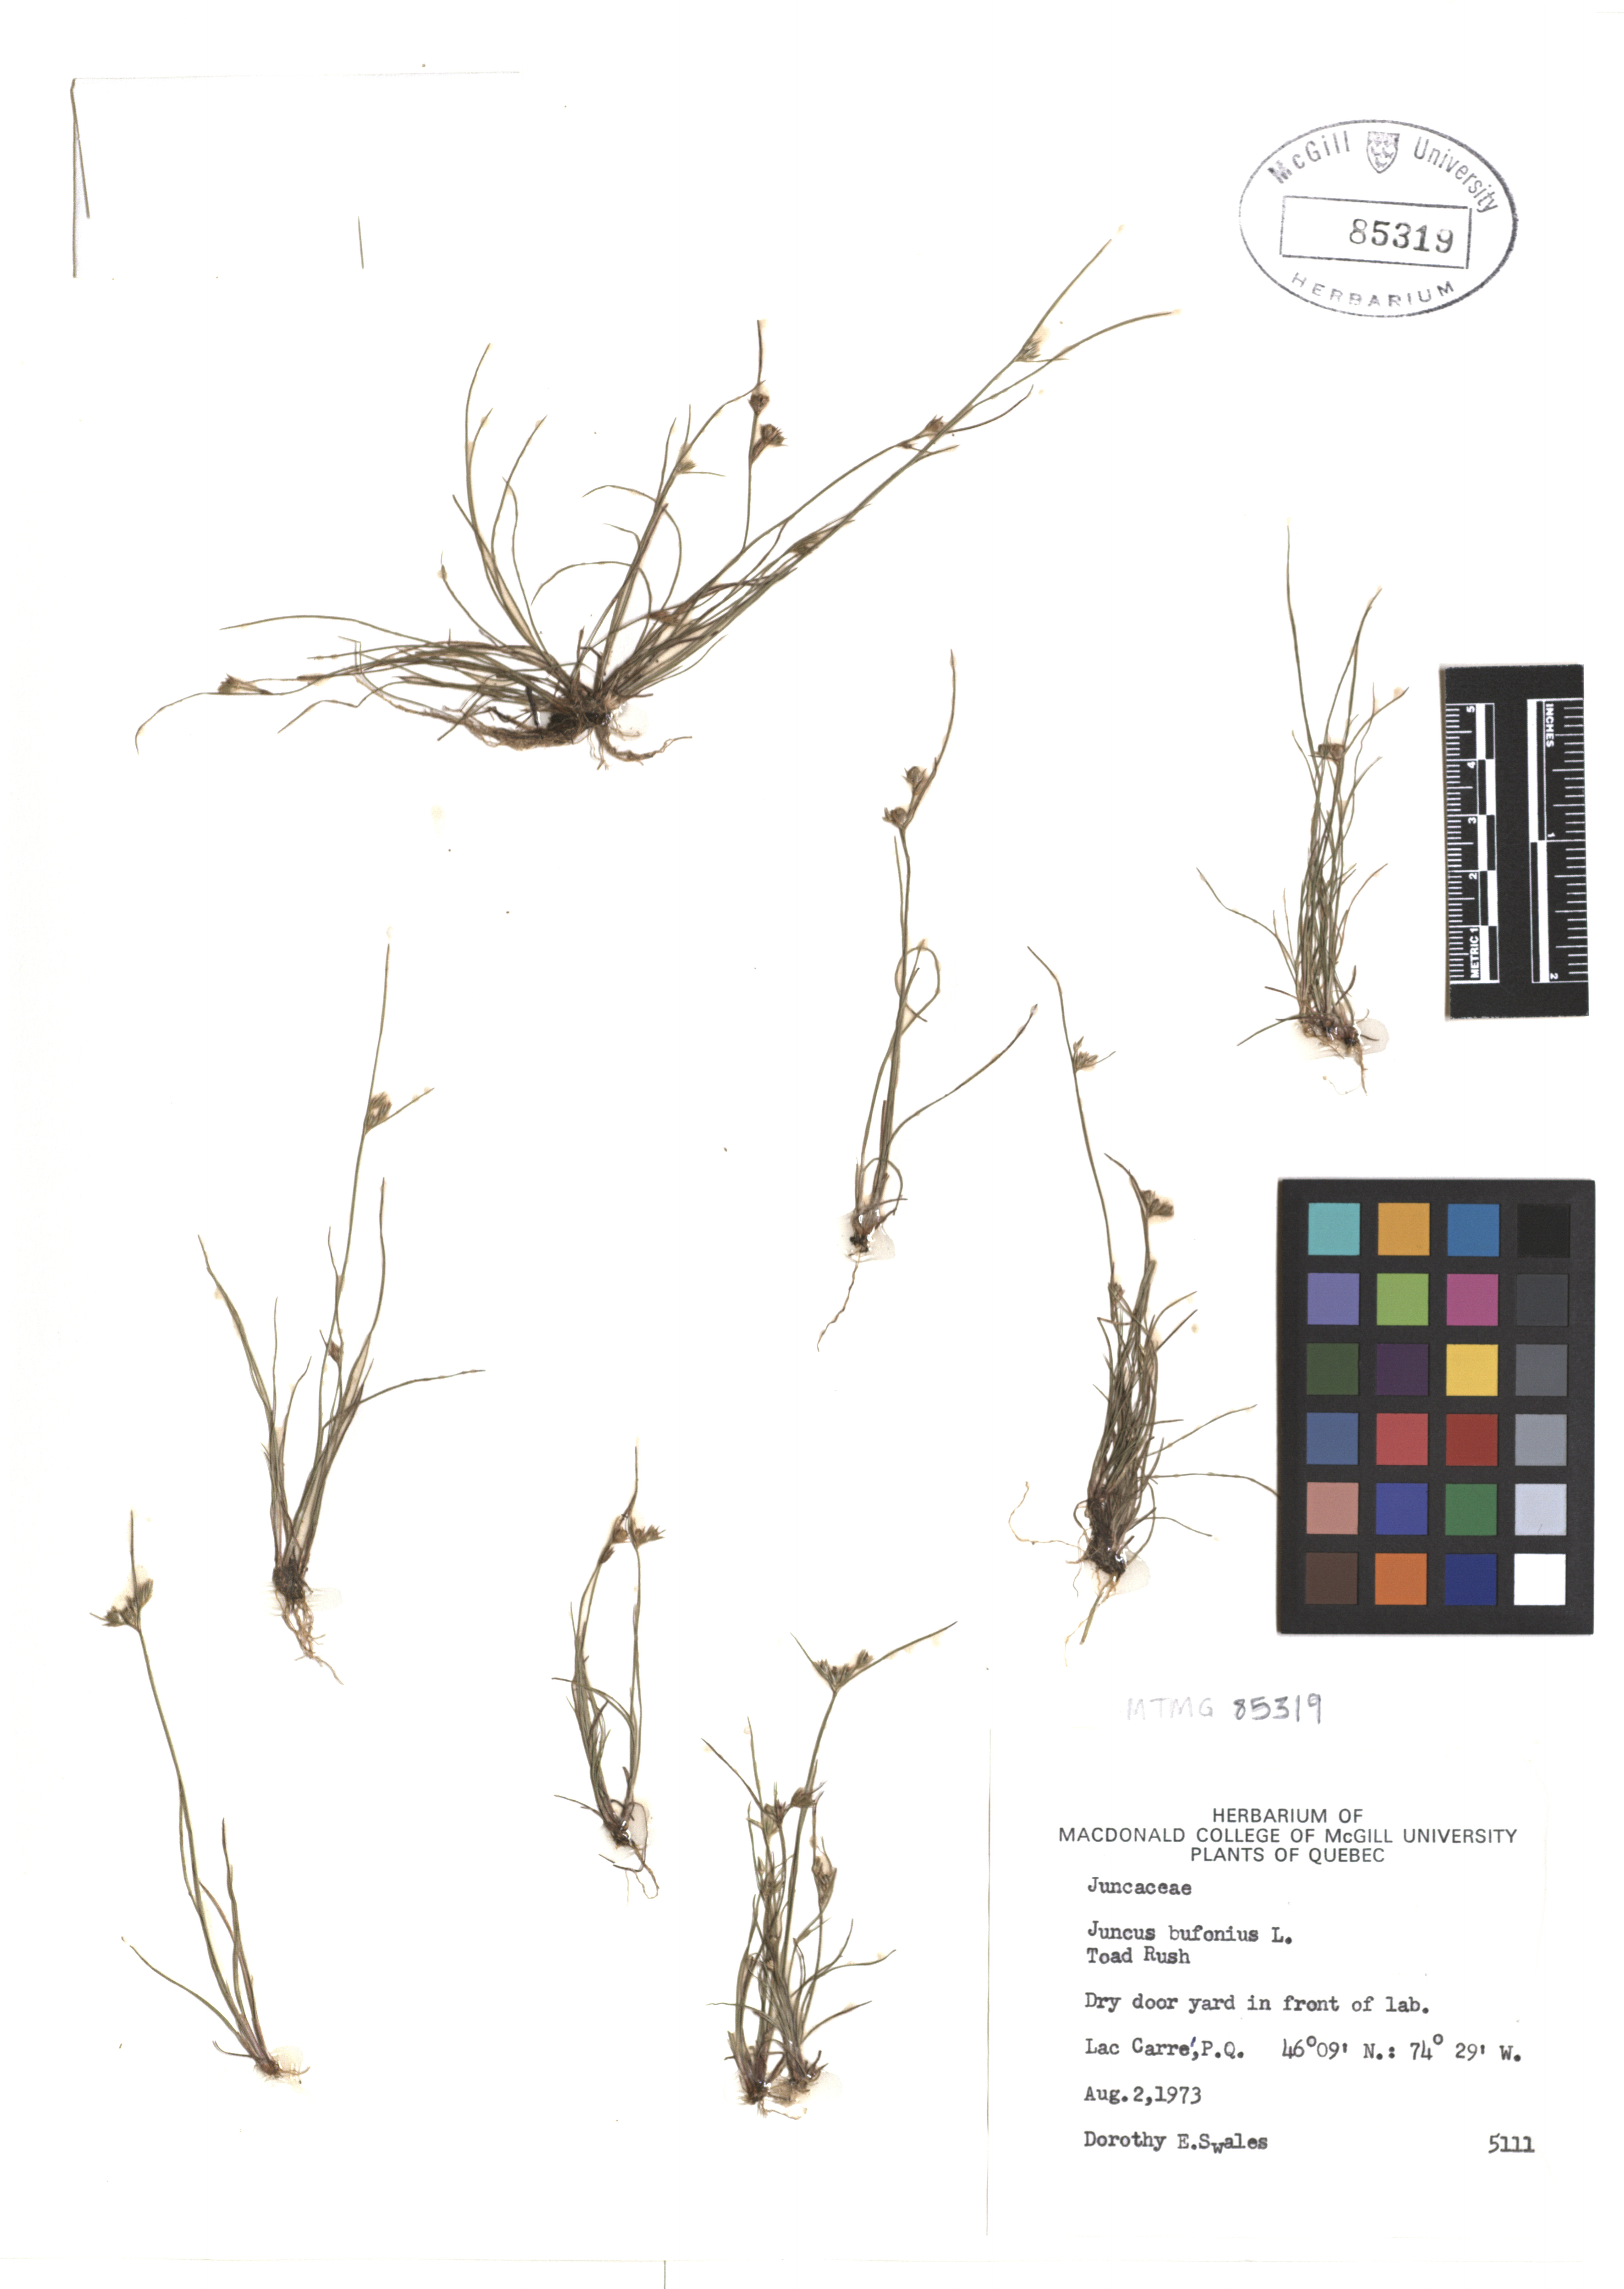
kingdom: Plantae
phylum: Tracheophyta
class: Liliopsida
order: Poales
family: Juncaceae
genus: Juncus
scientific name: Juncus bufonius
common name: Toad rush
